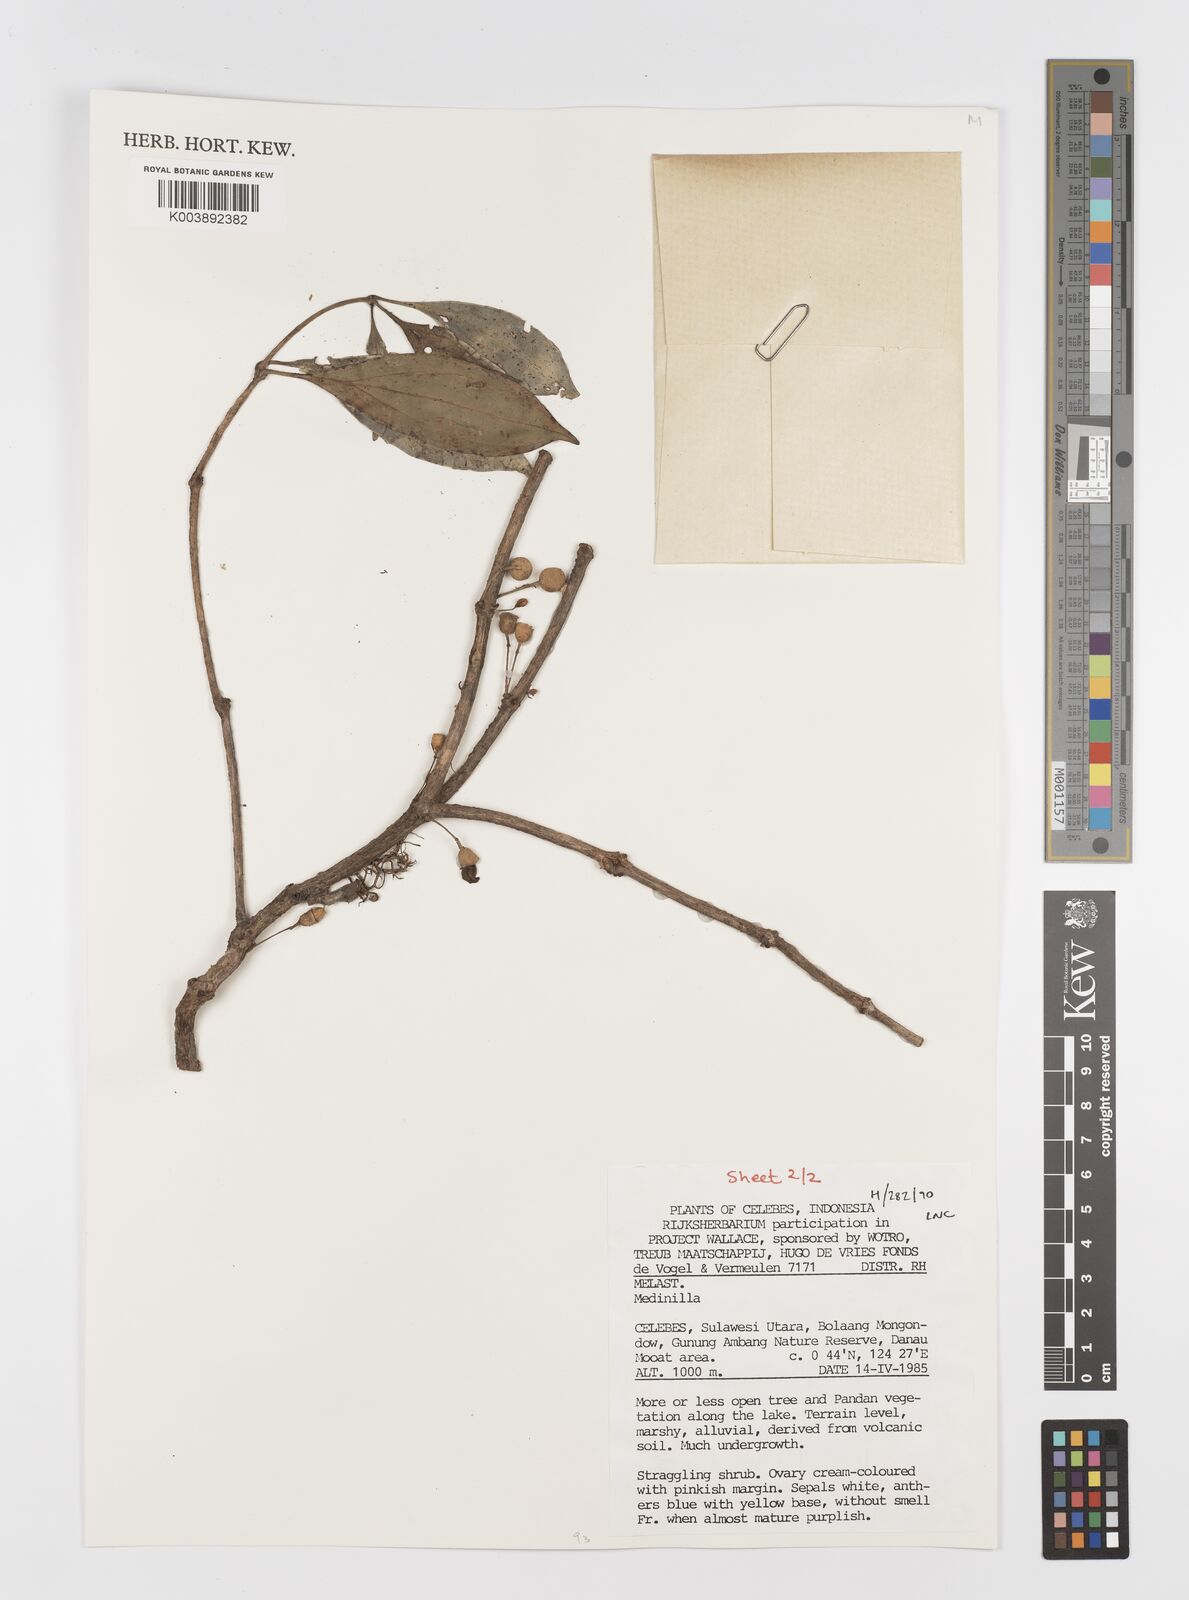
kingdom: Plantae
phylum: Tracheophyta
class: Magnoliopsida
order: Myrtales
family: Melastomataceae
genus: Medinilla
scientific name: Medinilla
